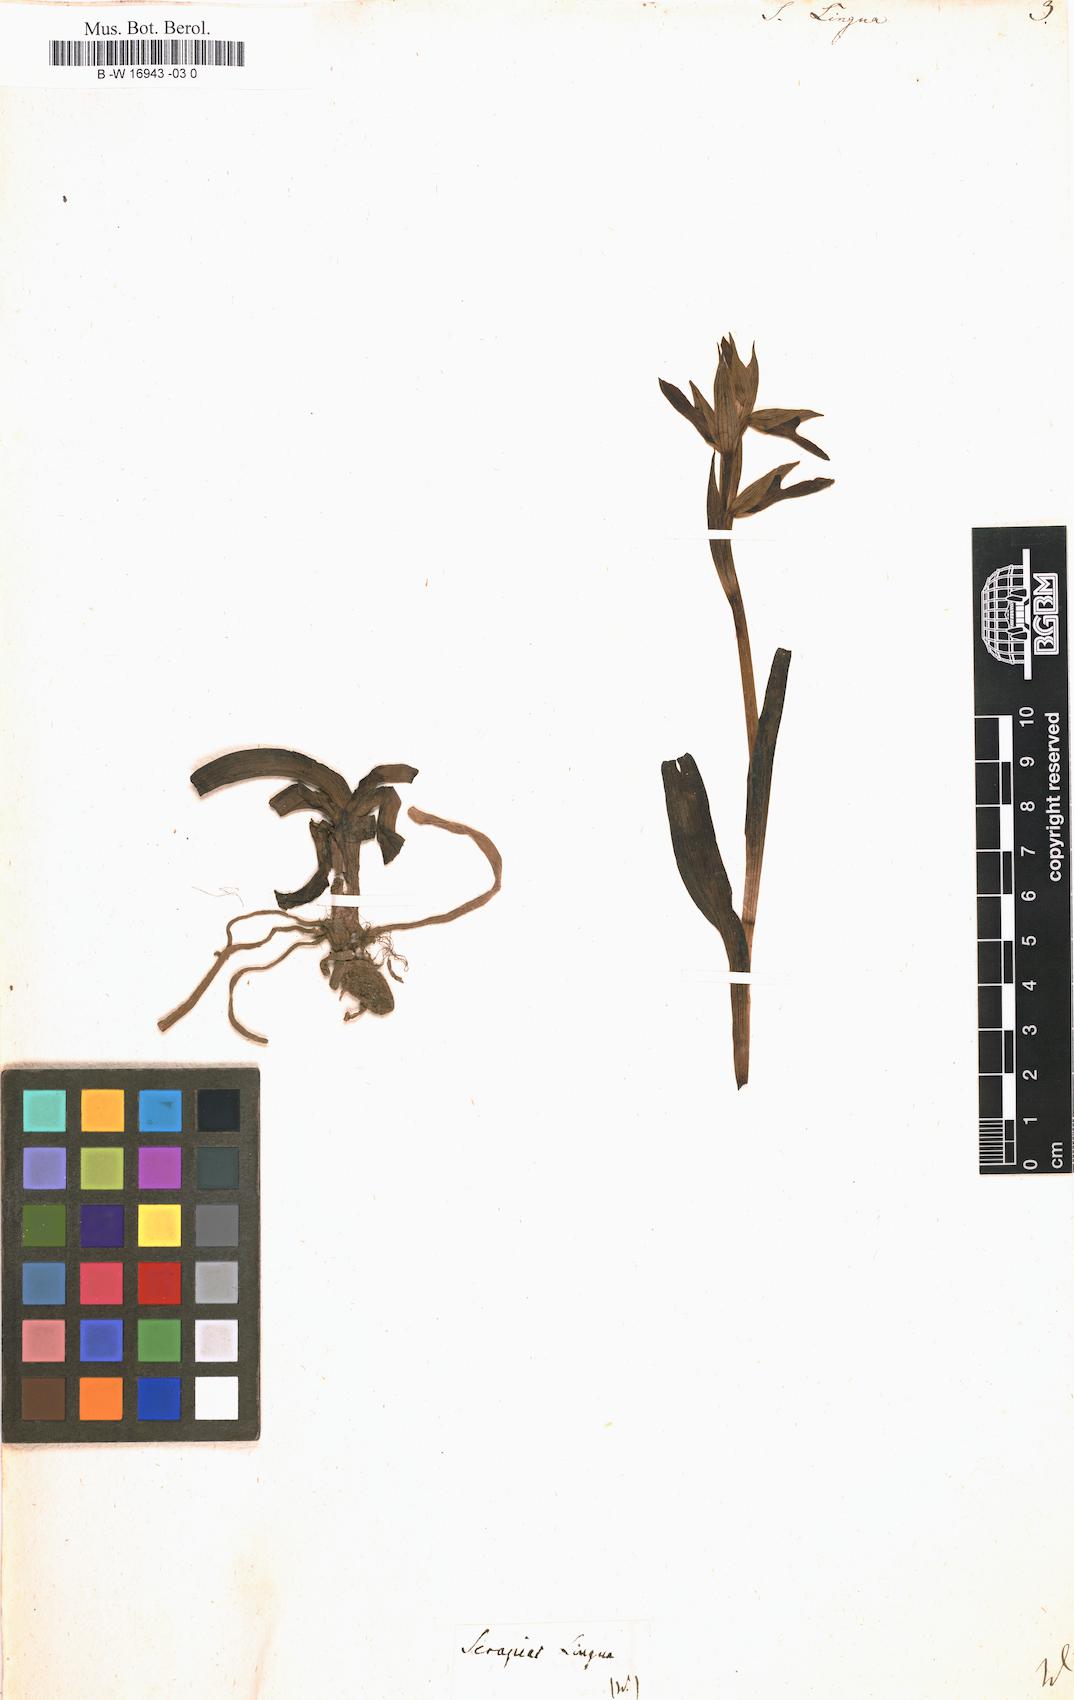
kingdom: Plantae
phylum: Tracheophyta
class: Liliopsida
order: Asparagales
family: Orchidaceae
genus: Ophrys
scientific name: Ophrys fusca
